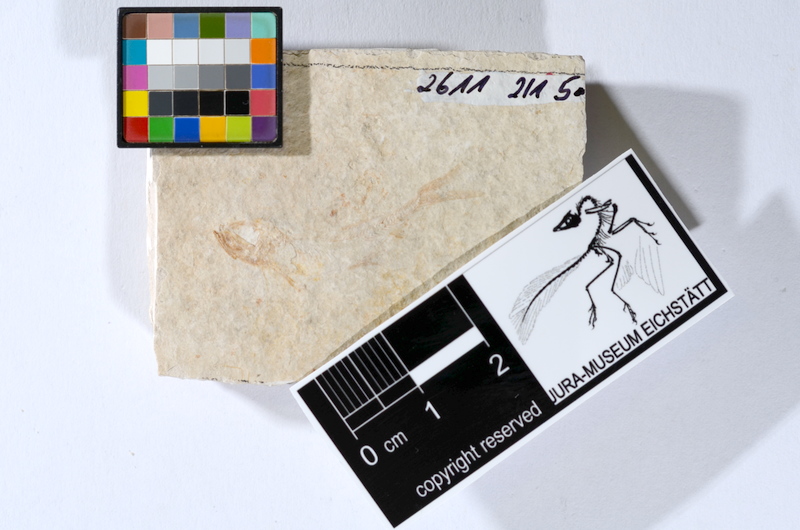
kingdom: Animalia
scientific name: Animalia
